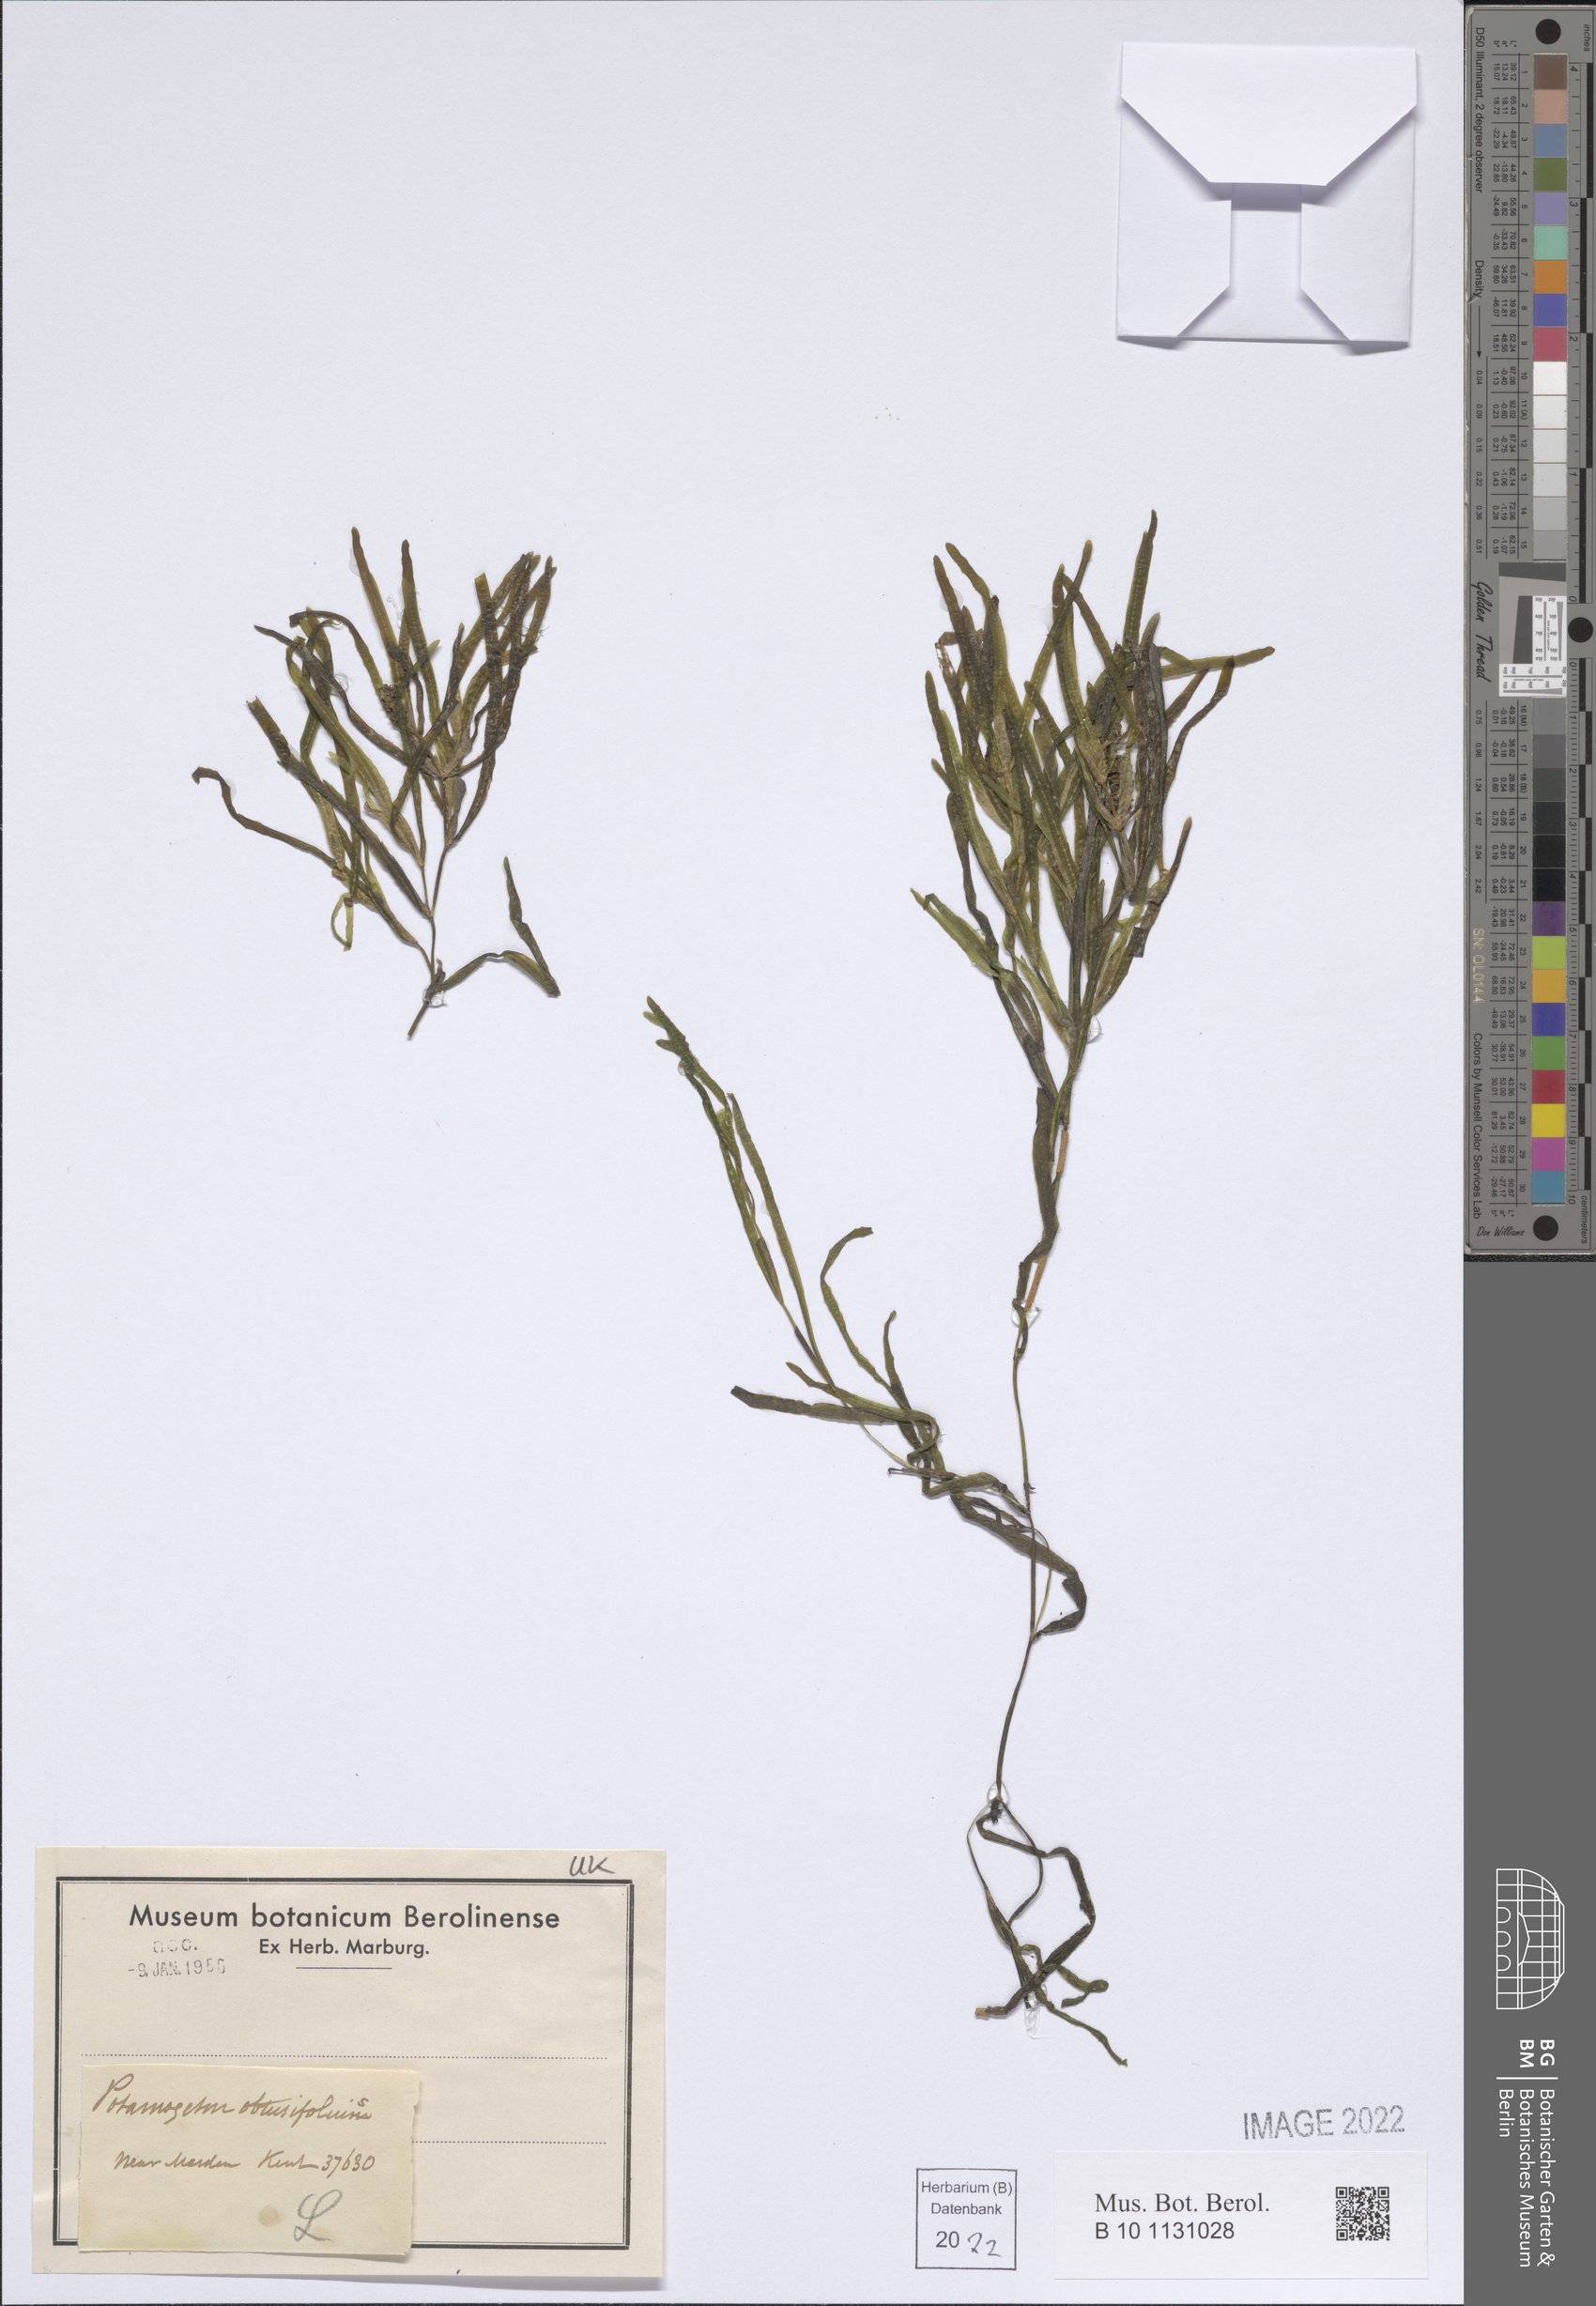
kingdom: Plantae
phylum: Tracheophyta
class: Liliopsida
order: Alismatales
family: Potamogetonaceae
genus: Potamogeton
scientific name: Potamogeton obtusifolius
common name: Blunt-leaved pondweed
